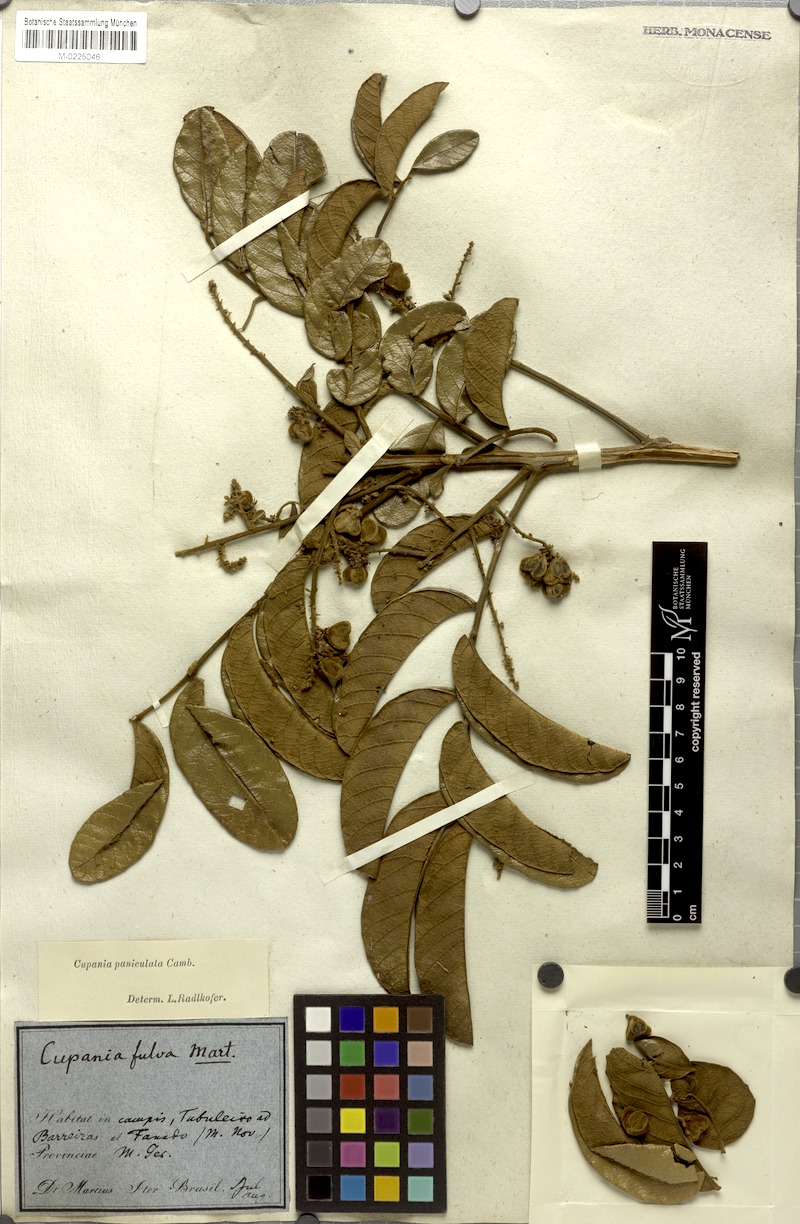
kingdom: Plantae
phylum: Tracheophyta
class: Magnoliopsida
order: Sapindales
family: Sapindaceae
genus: Cupania
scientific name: Cupania paniculata
